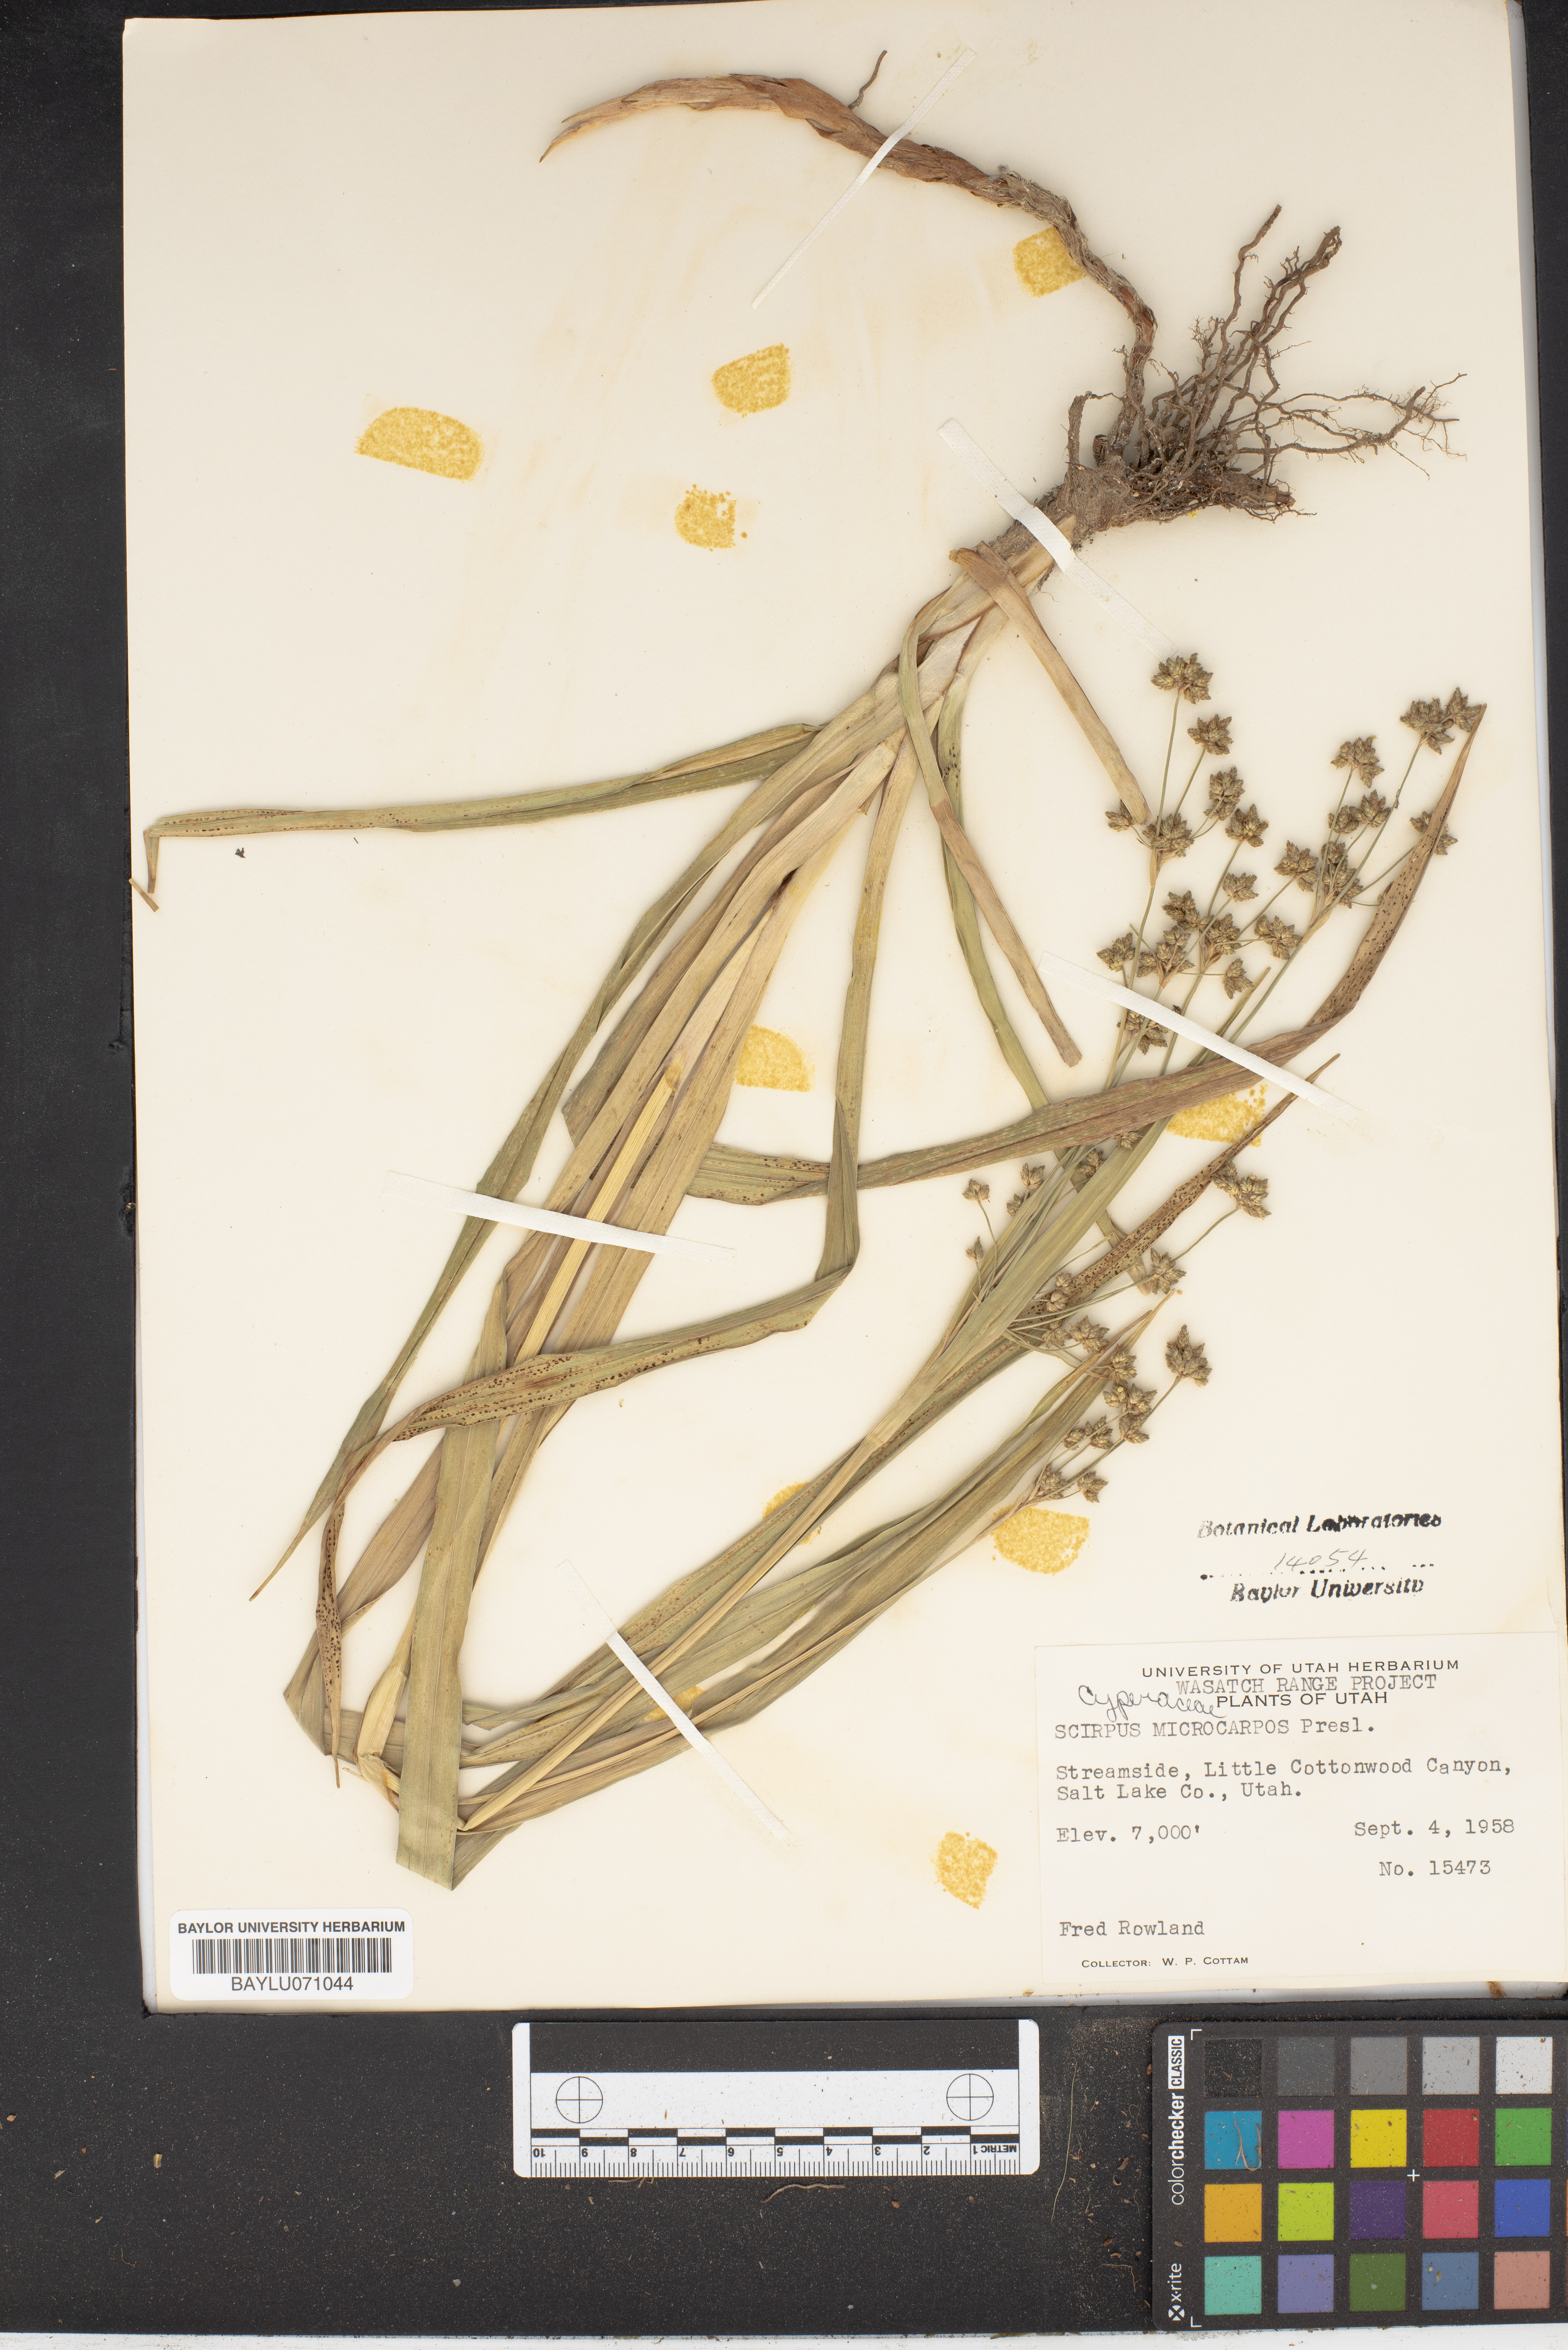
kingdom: Plantae
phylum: Tracheophyta
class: Liliopsida
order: Poales
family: Cyperaceae
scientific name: Cyperaceae
